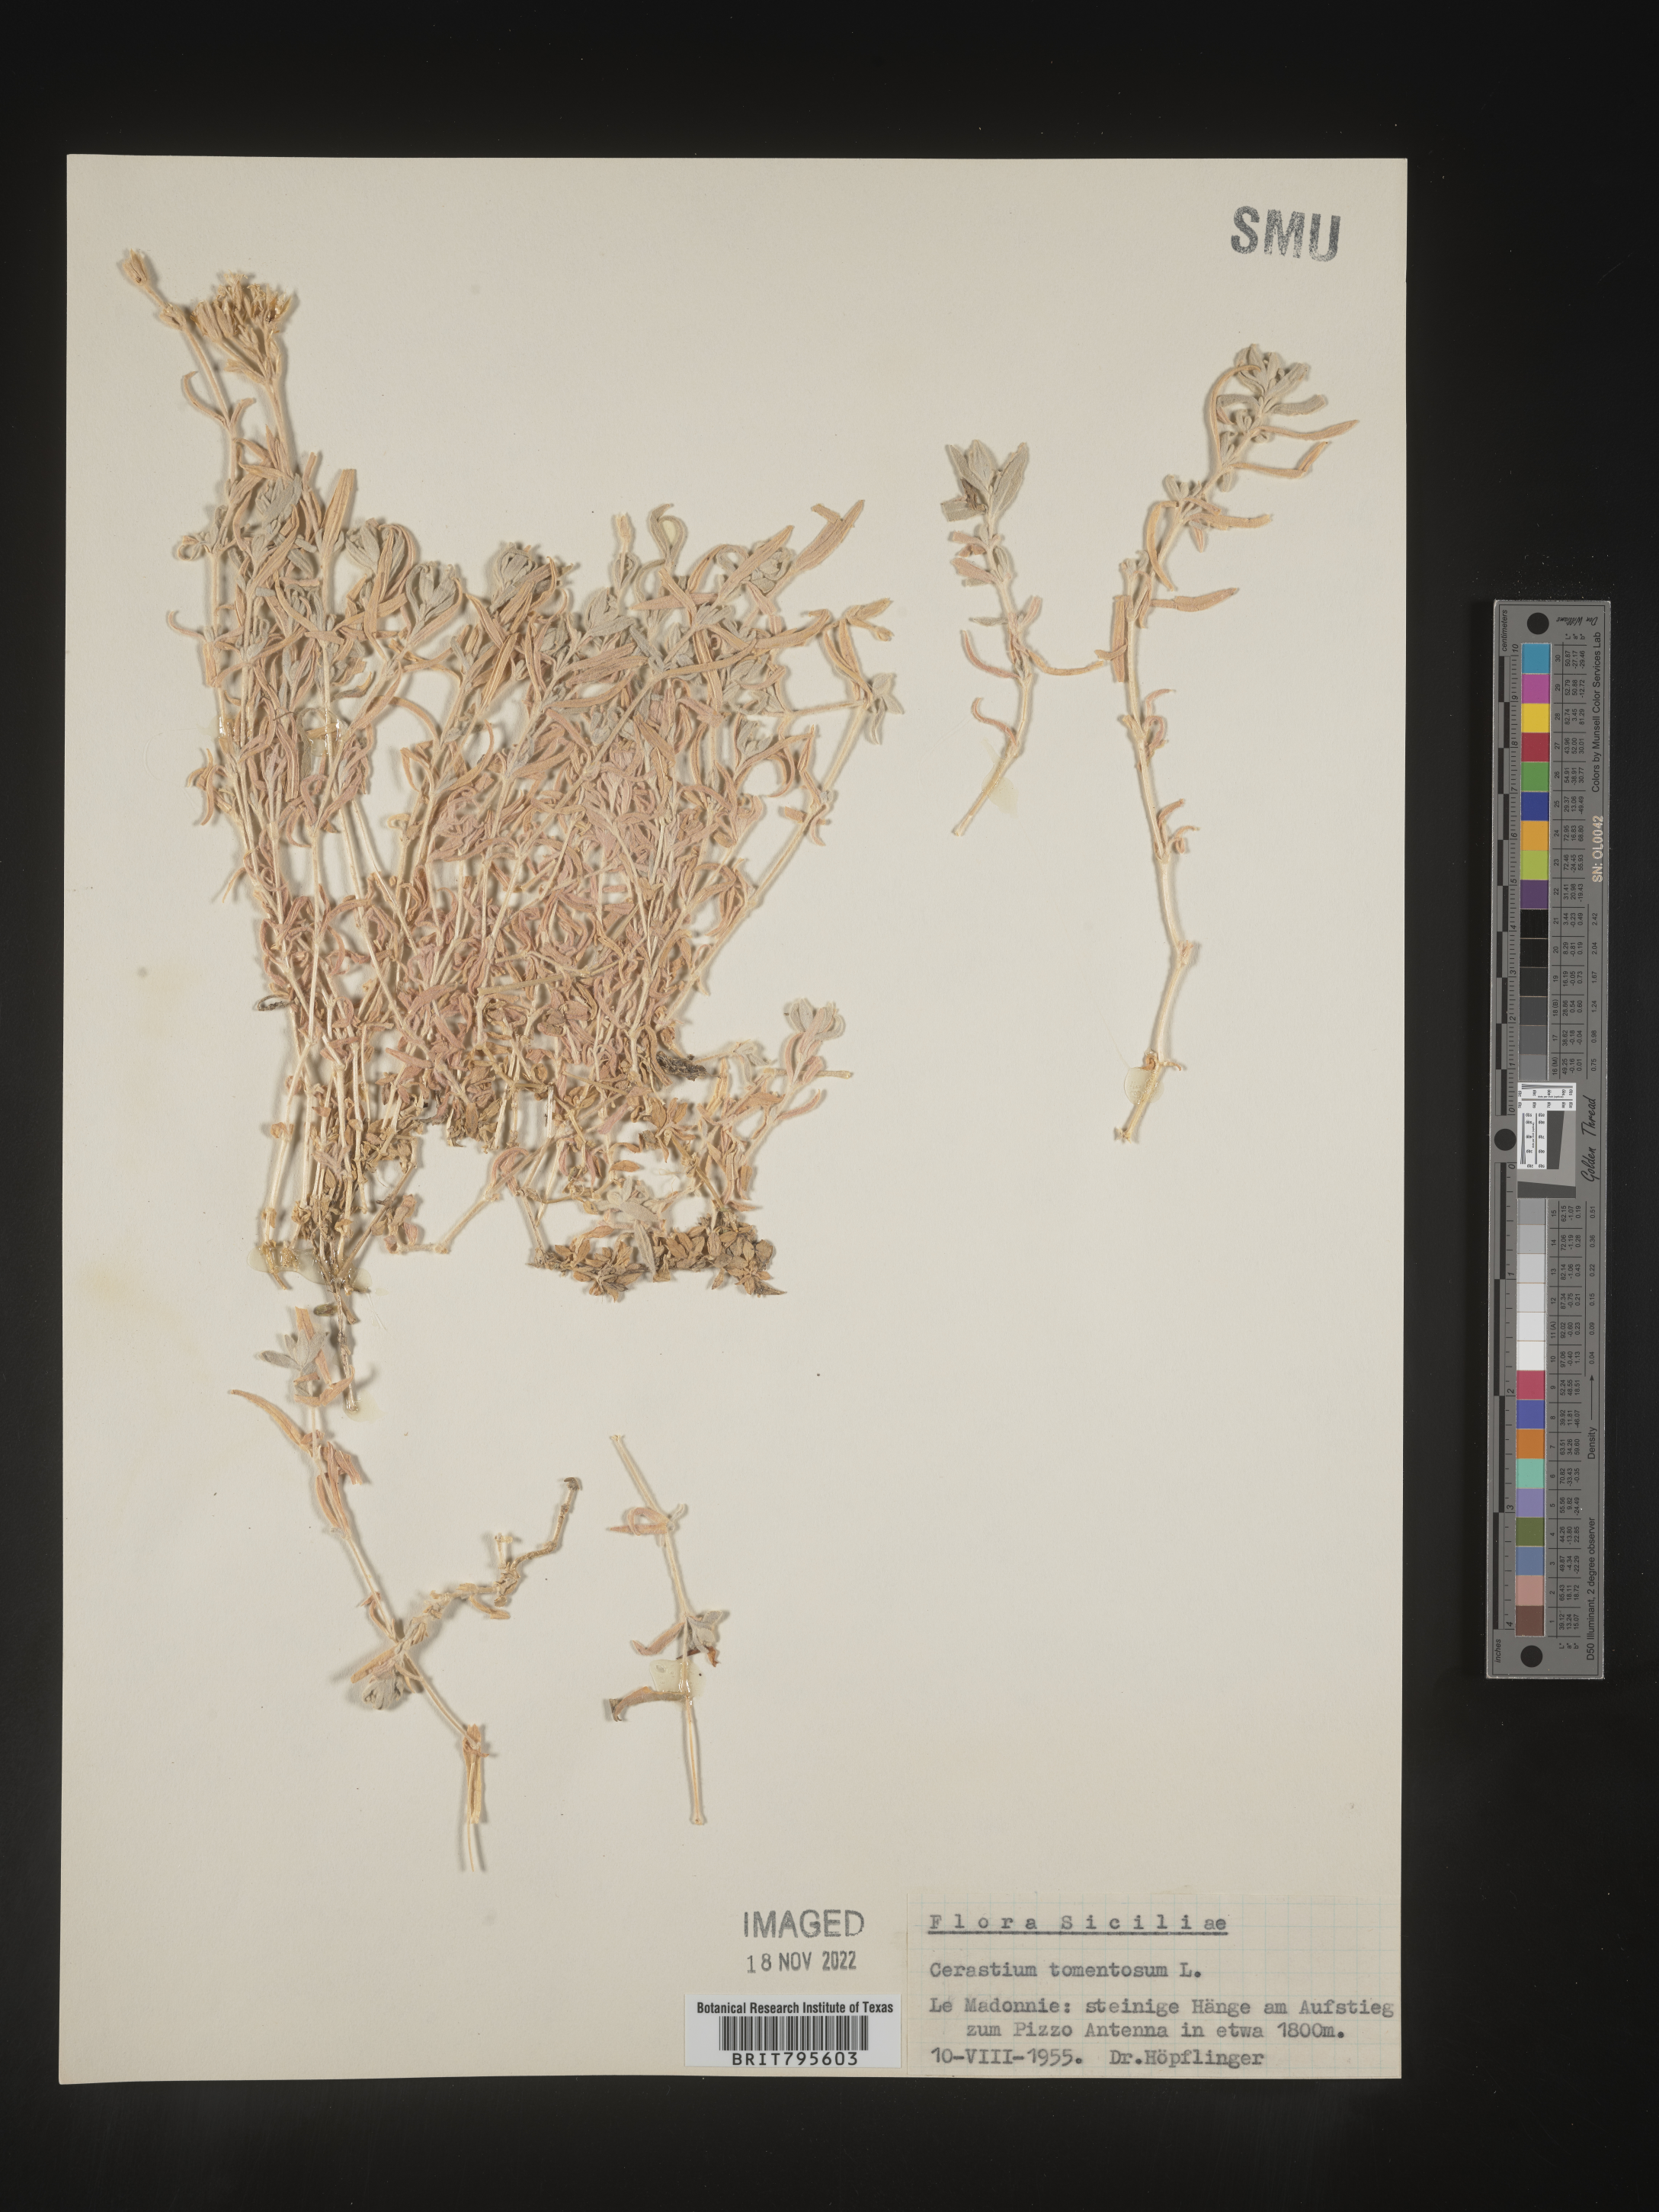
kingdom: Plantae
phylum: Tracheophyta
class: Magnoliopsida
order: Caryophyllales
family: Caryophyllaceae
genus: Cerastium
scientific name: Cerastium
